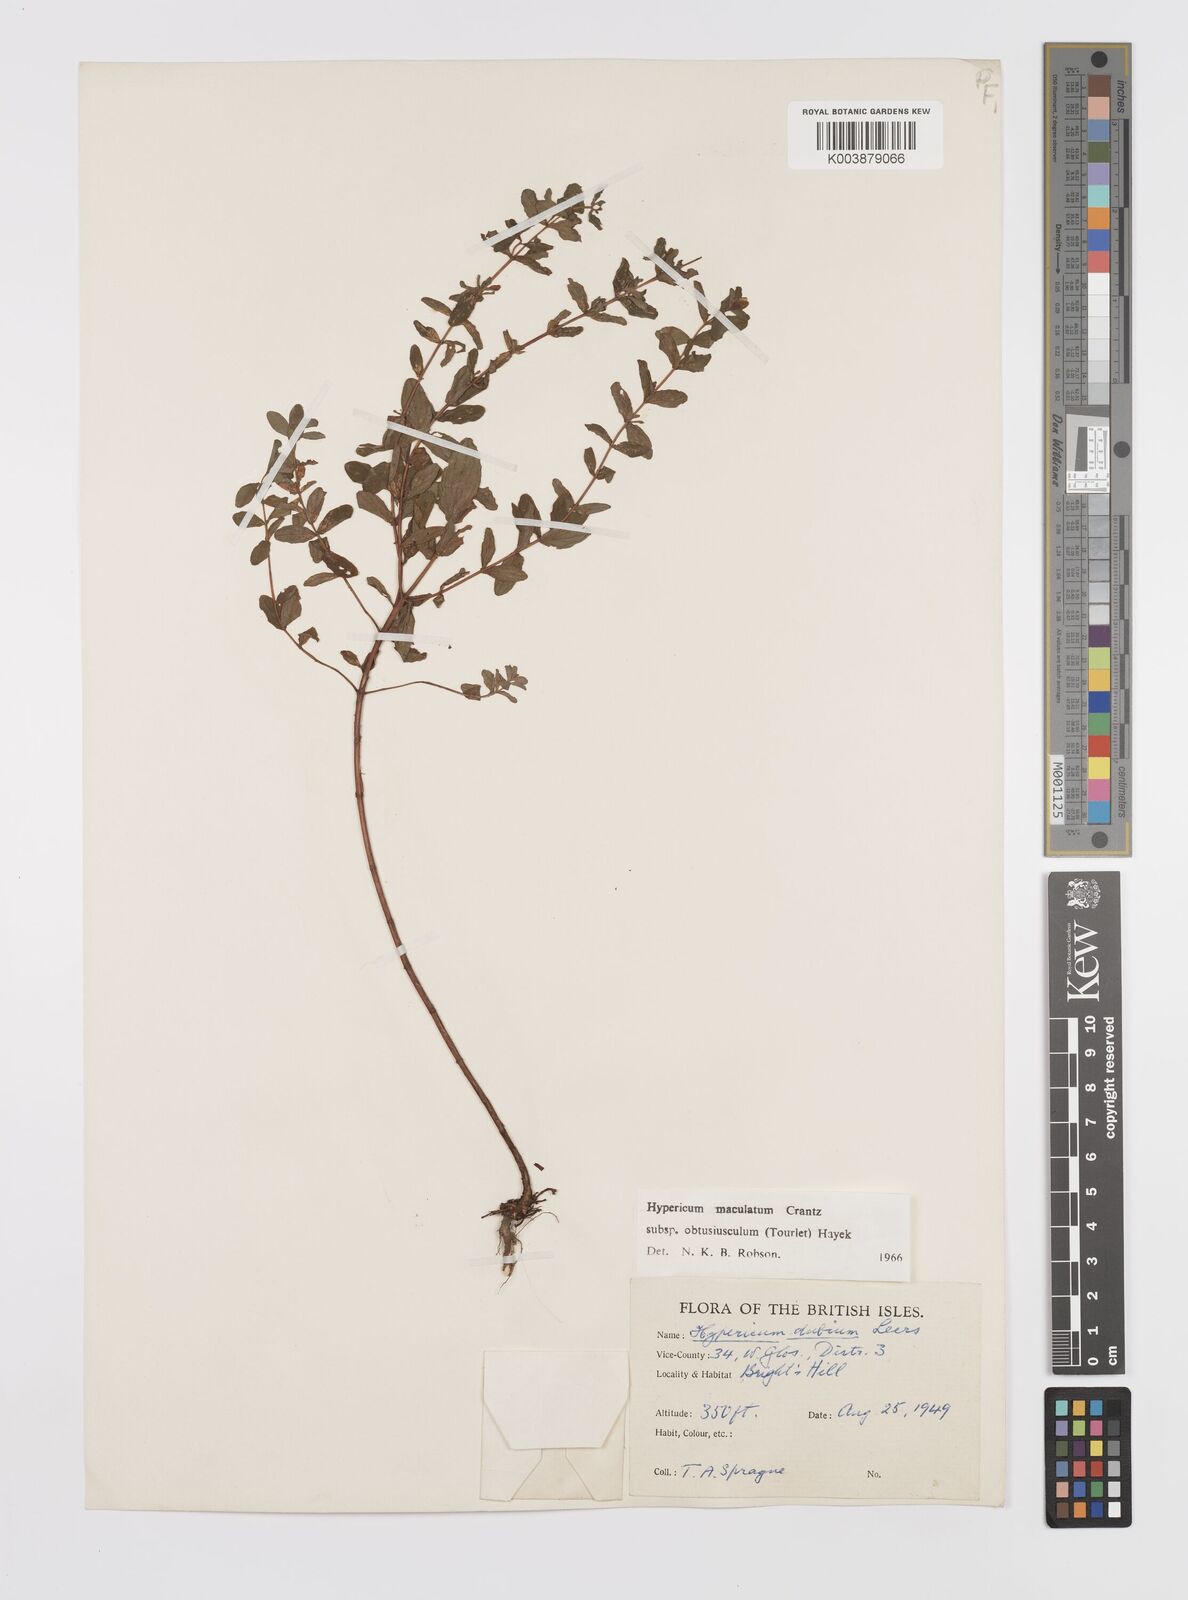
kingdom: Plantae
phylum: Tracheophyta
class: Magnoliopsida
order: Malpighiales
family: Hypericaceae
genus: Hypericum
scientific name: Hypericum dubium
